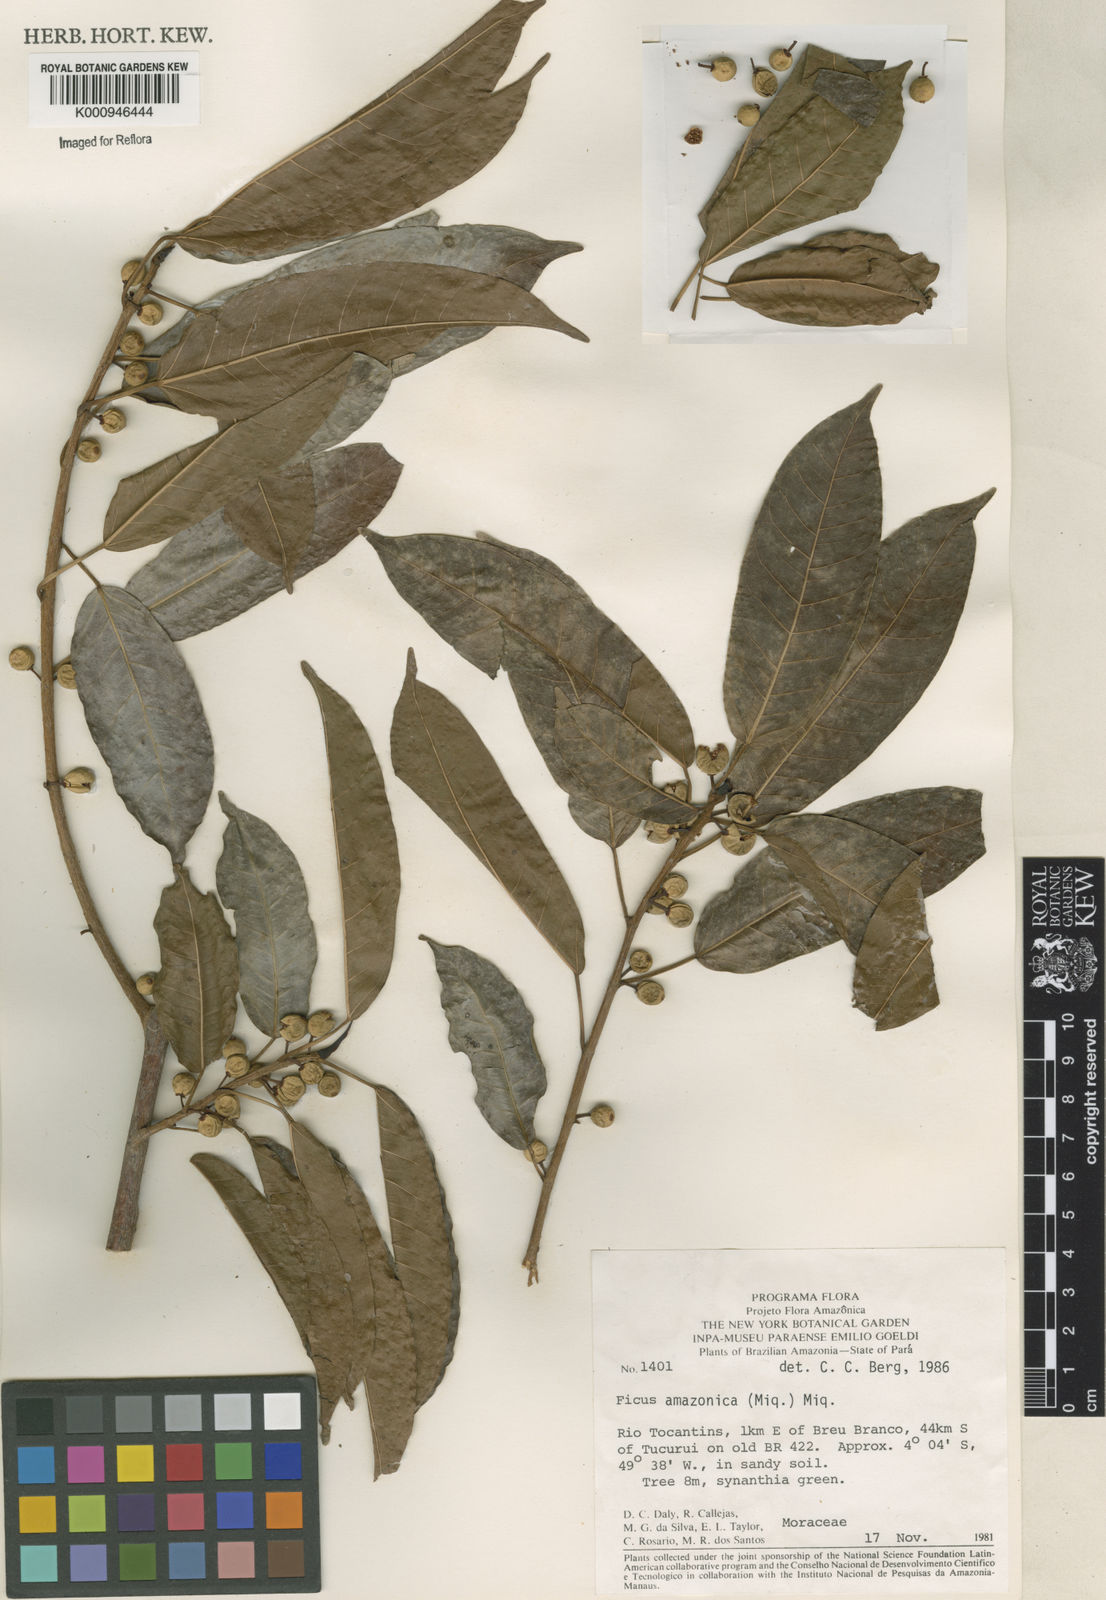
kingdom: Plantae
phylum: Tracheophyta
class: Magnoliopsida
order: Rosales
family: Moraceae
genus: Ficus
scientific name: Ficus krukovii
